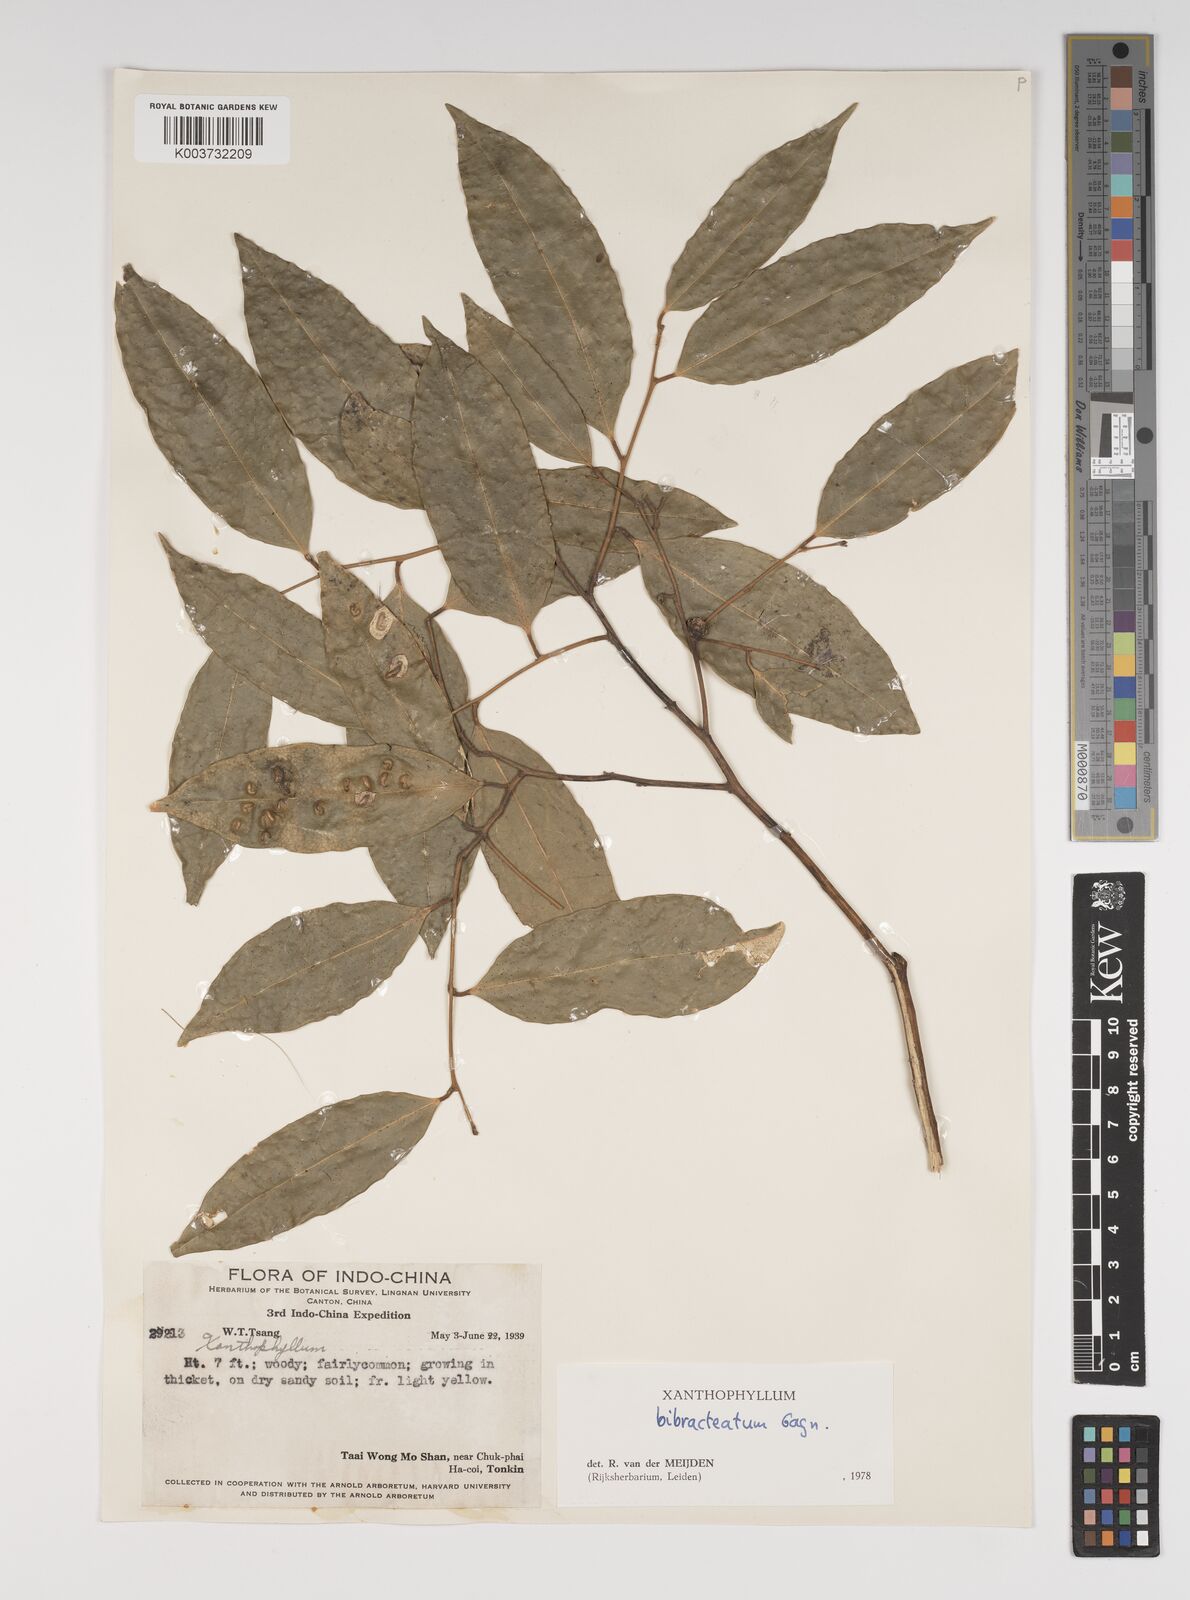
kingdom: Plantae
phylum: Tracheophyta
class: Magnoliopsida
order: Fabales
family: Polygalaceae
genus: Xanthophyllum
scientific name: Xanthophyllum bibracteatum
